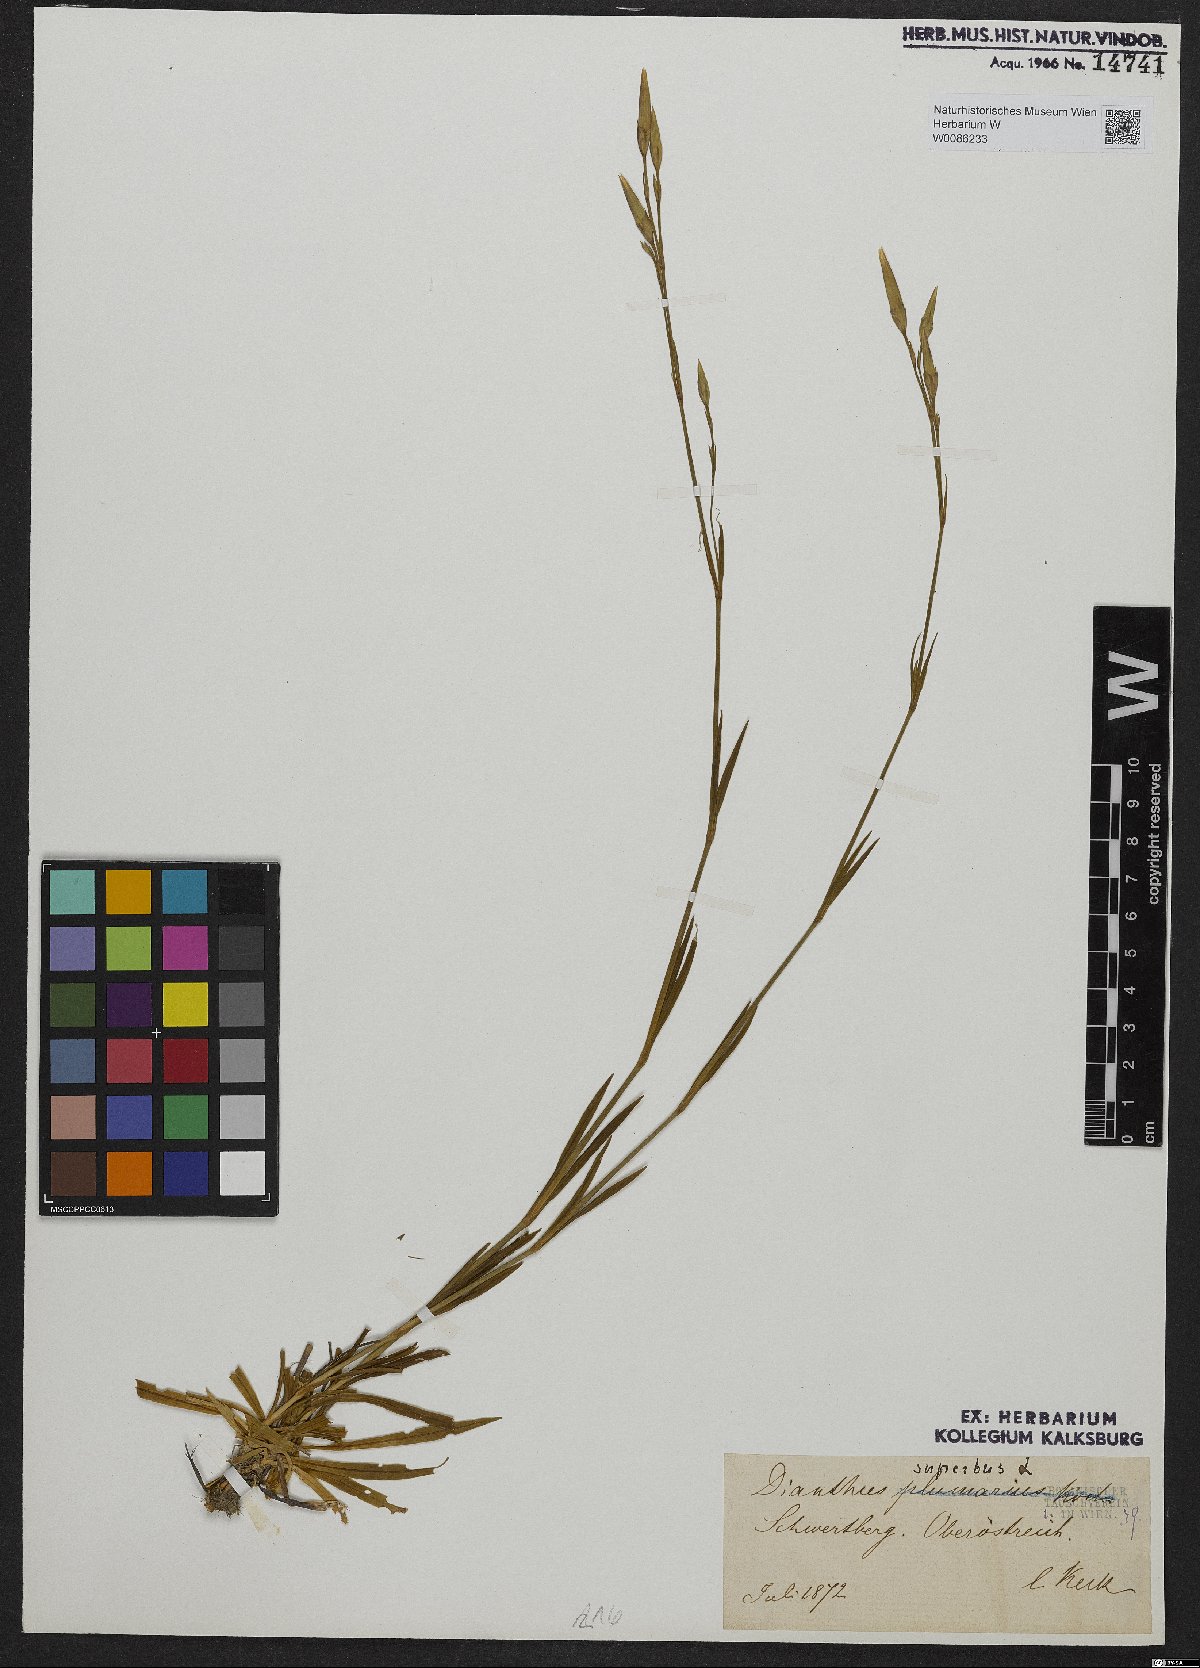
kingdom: Plantae
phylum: Tracheophyta
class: Magnoliopsida
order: Caryophyllales
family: Caryophyllaceae
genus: Dianthus
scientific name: Dianthus superbus
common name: Fringed pink
